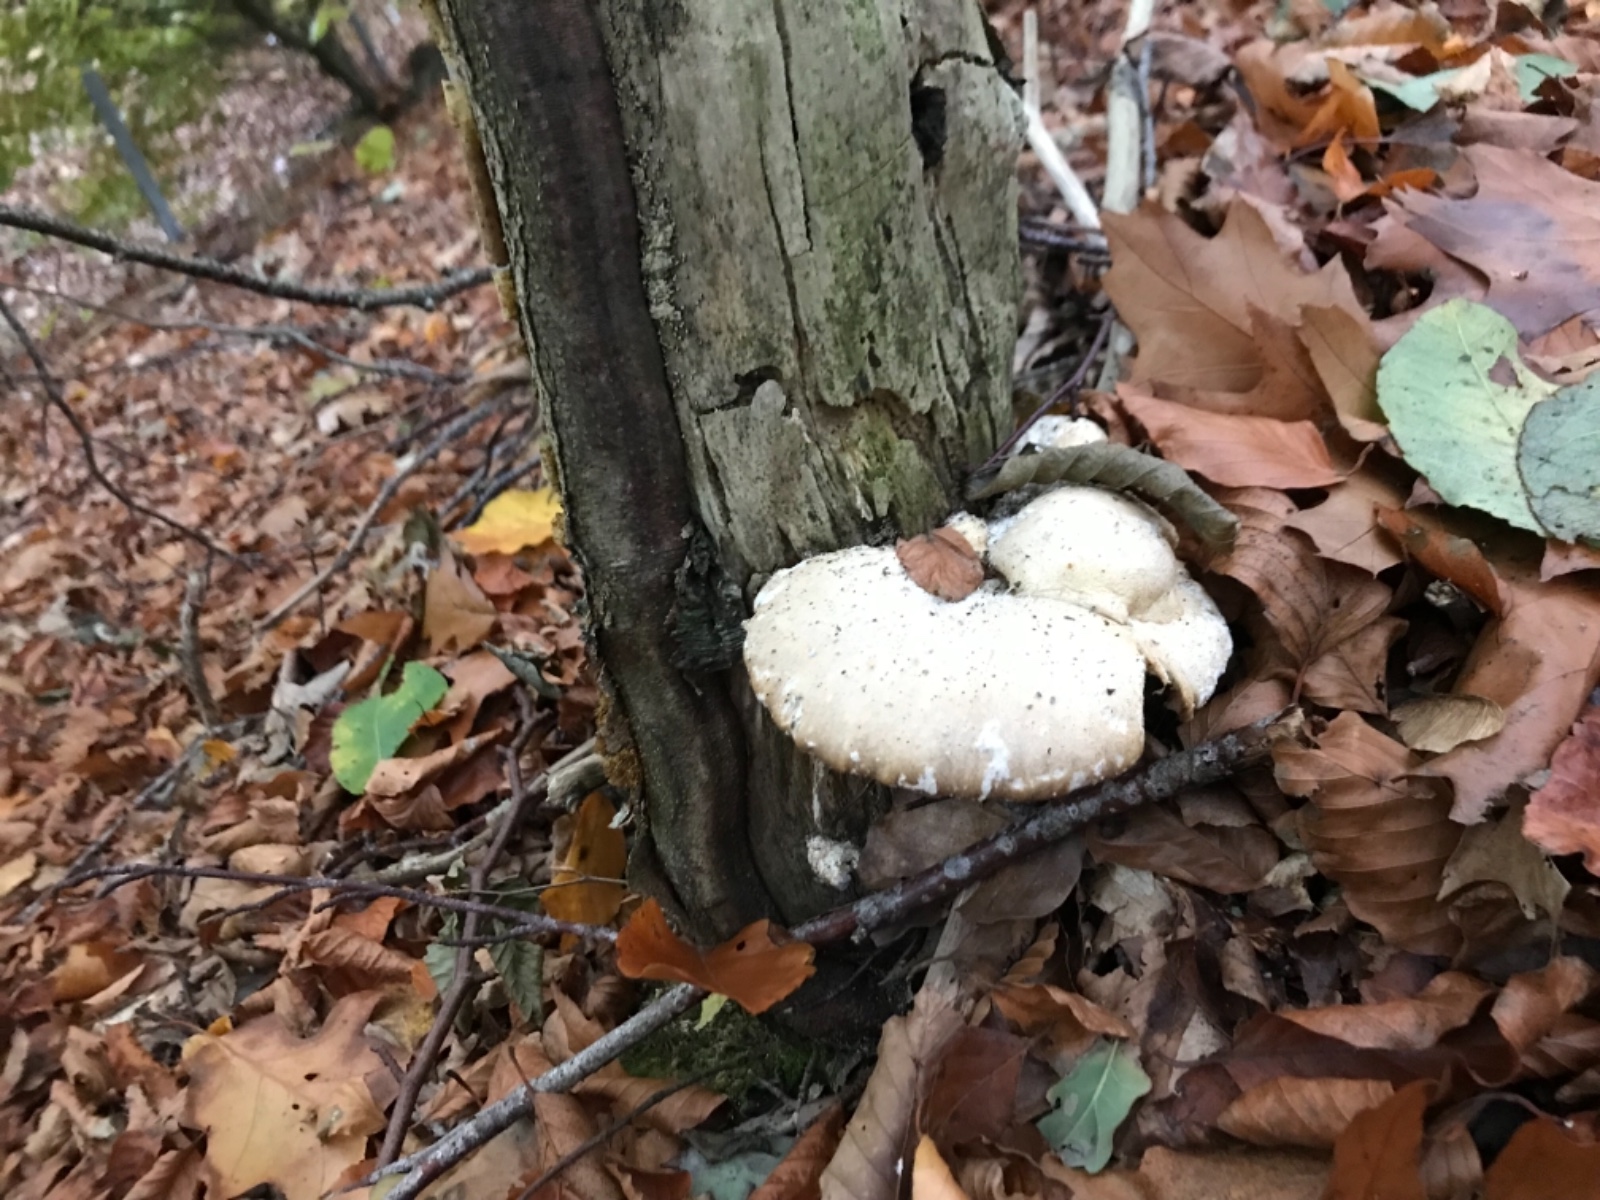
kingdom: Fungi
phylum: Basidiomycota
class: Agaricomycetes
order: Agaricales
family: Pleurotaceae
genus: Pleurotus
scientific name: Pleurotus dryinus
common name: korkagtig østershat
